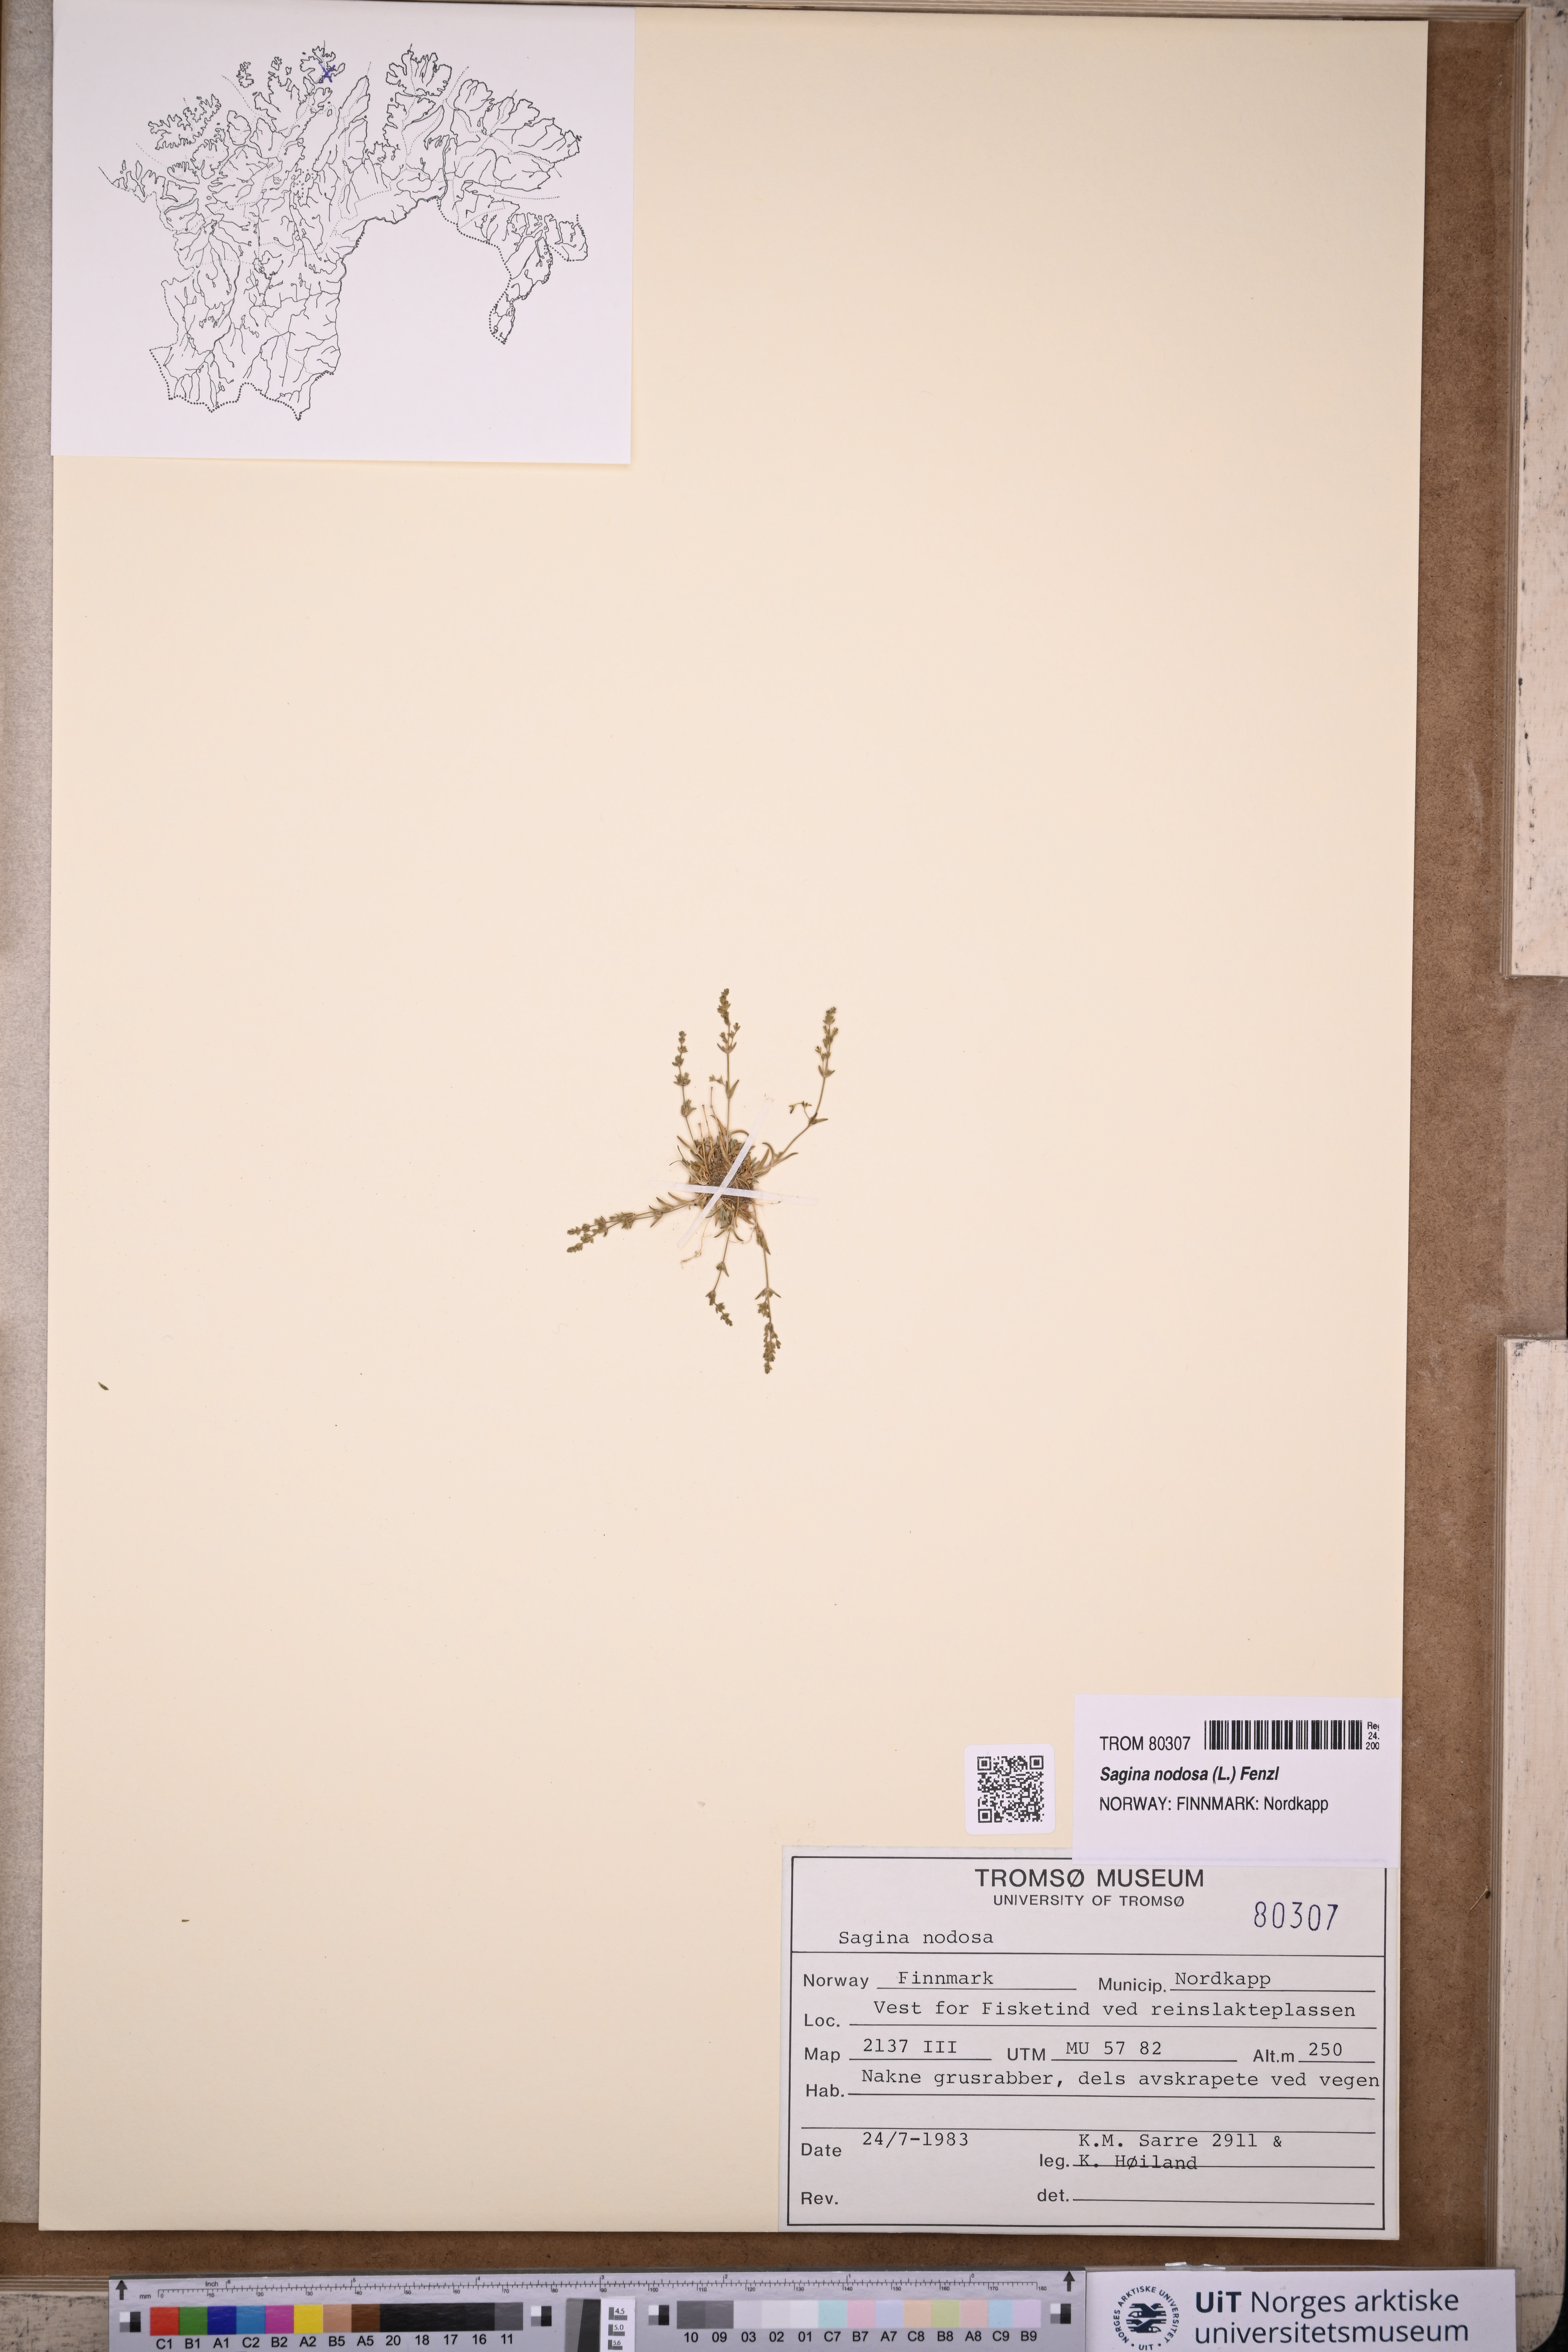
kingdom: Plantae
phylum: Tracheophyta
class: Magnoliopsida
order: Caryophyllales
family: Caryophyllaceae
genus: Sagina
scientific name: Sagina nodosa
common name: Knotted pearlwort
